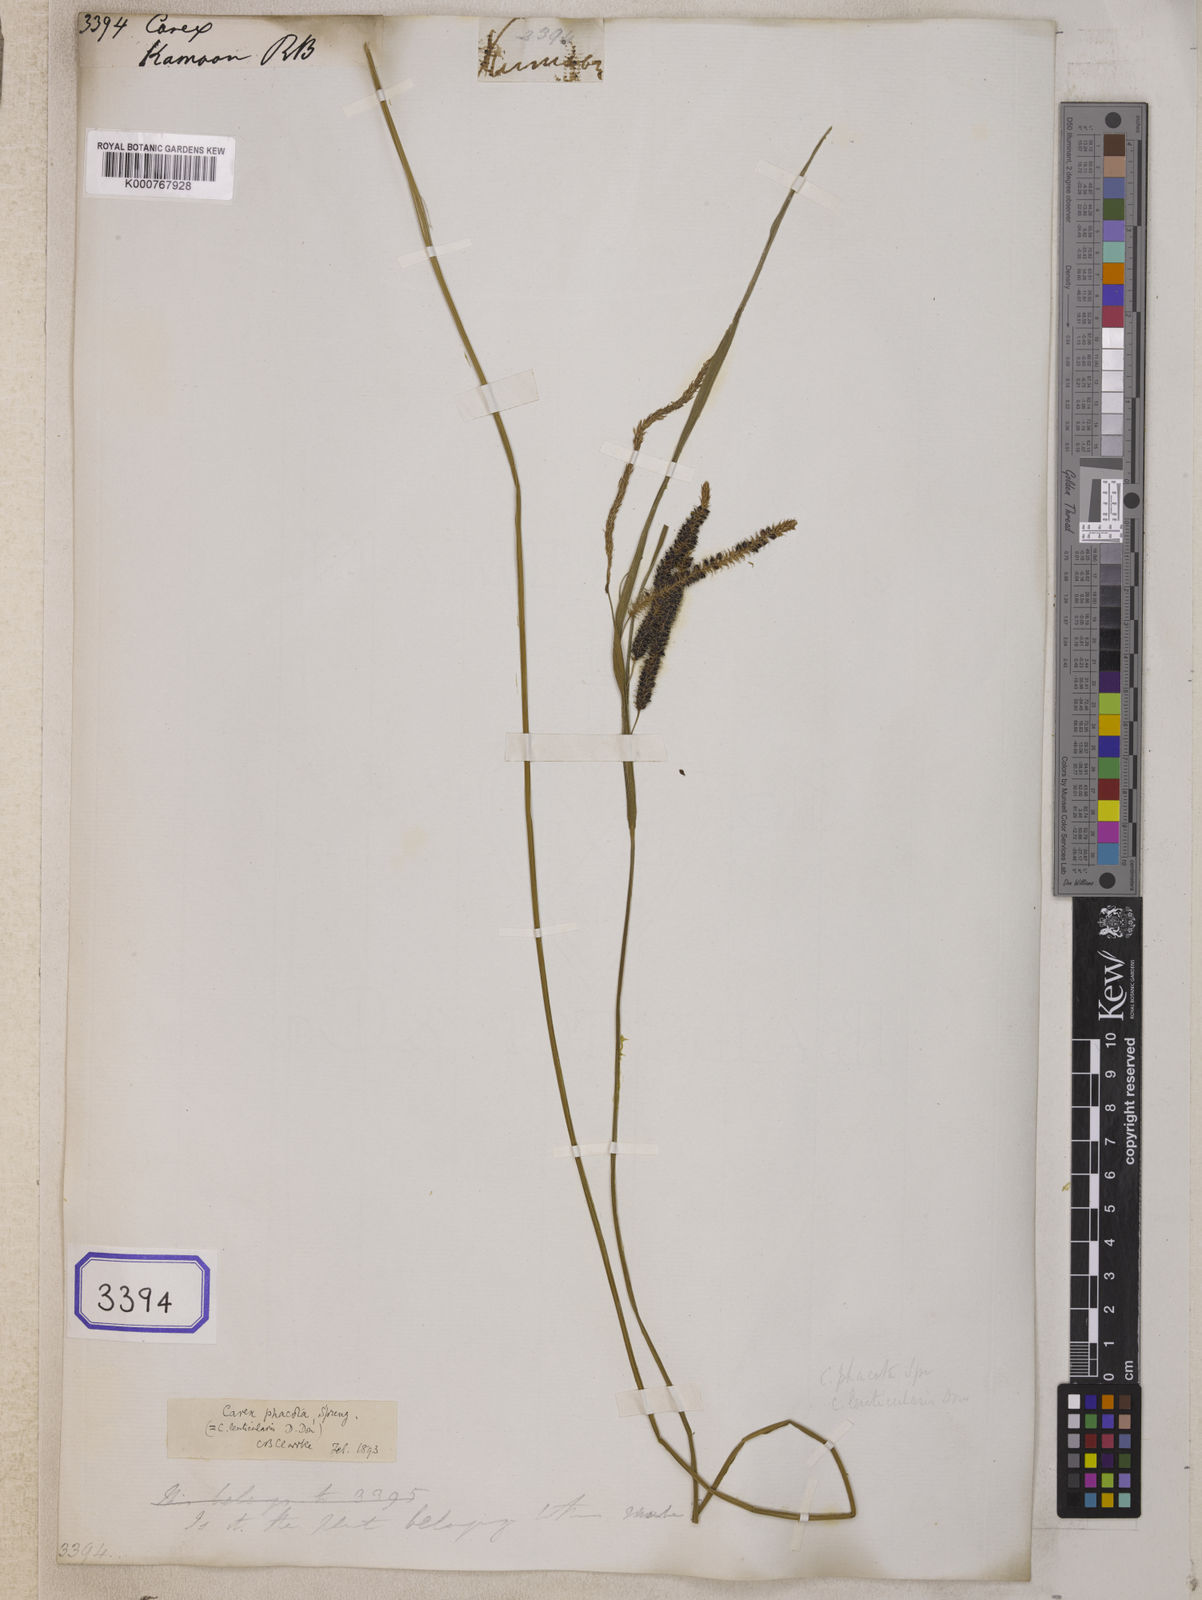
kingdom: Plantae
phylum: Tracheophyta
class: Liliopsida
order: Poales
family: Cyperaceae
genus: Carex
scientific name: Carex
